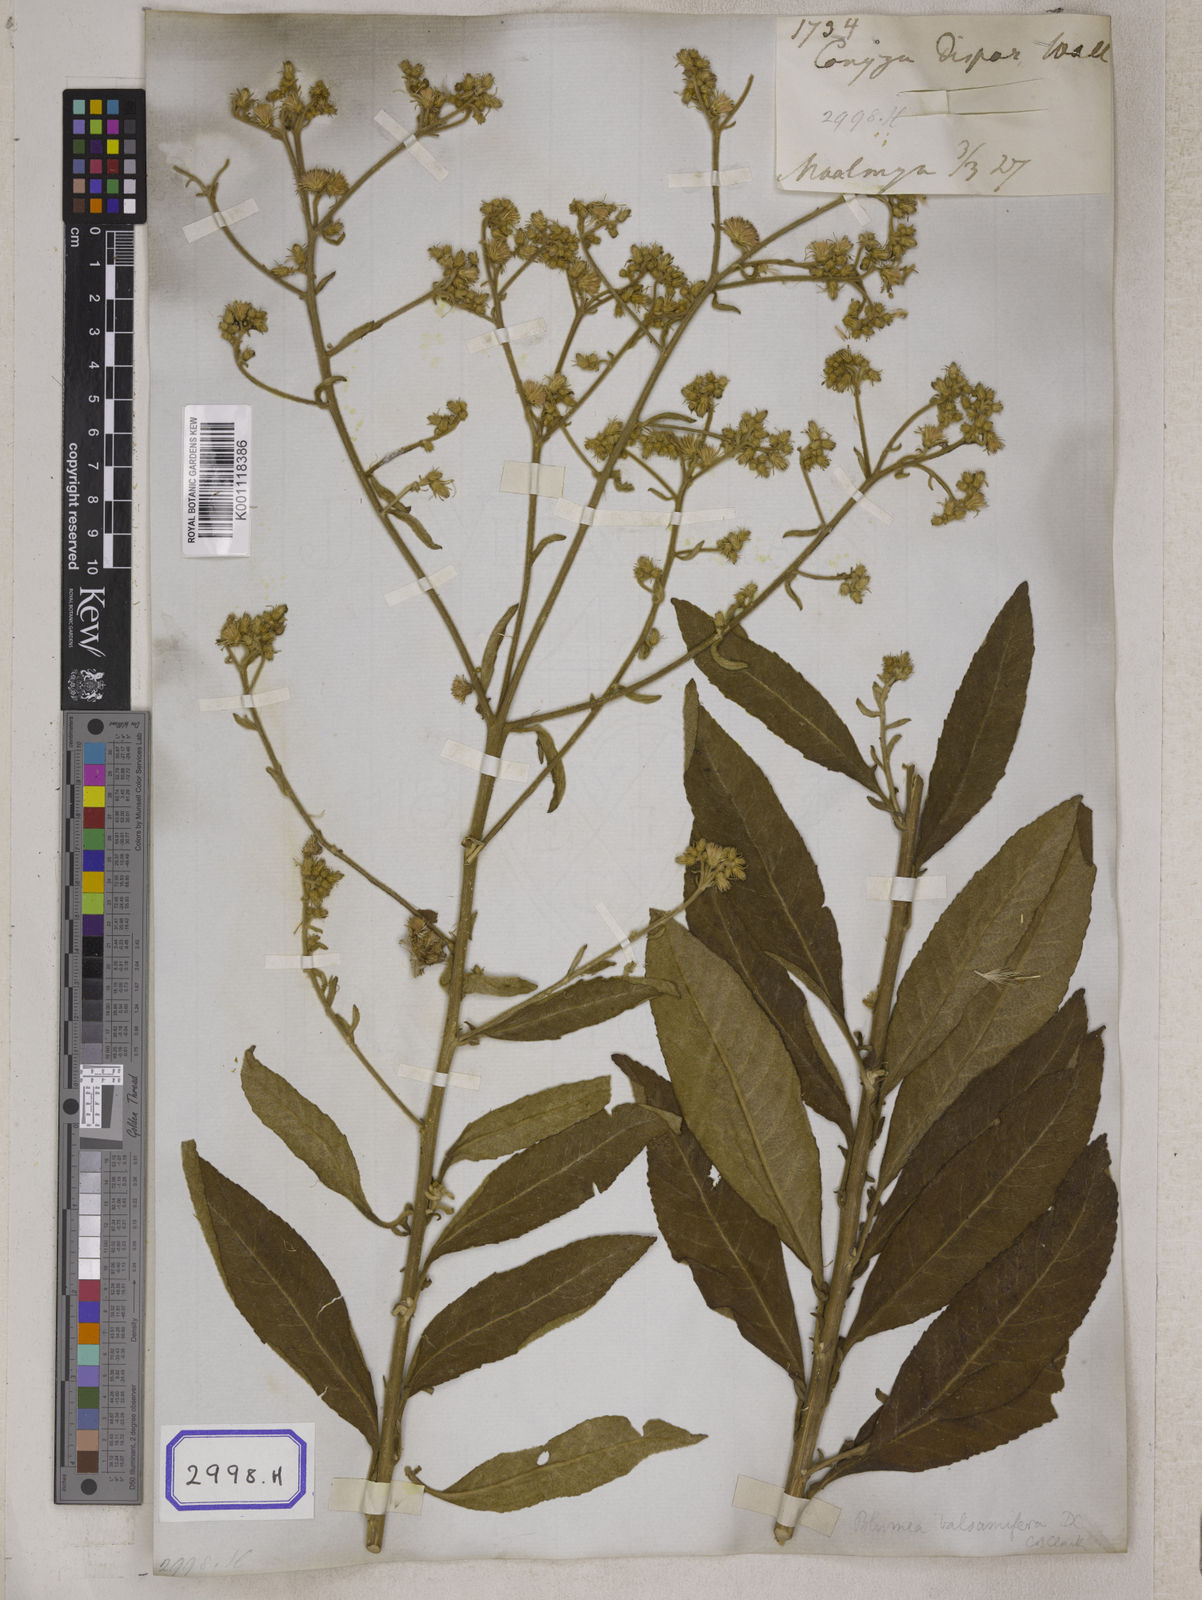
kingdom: Plantae
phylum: Tracheophyta
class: Magnoliopsida
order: Asterales
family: Asteraceae
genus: Blumea
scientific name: Blumea balsamifera
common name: Ngai camphor
